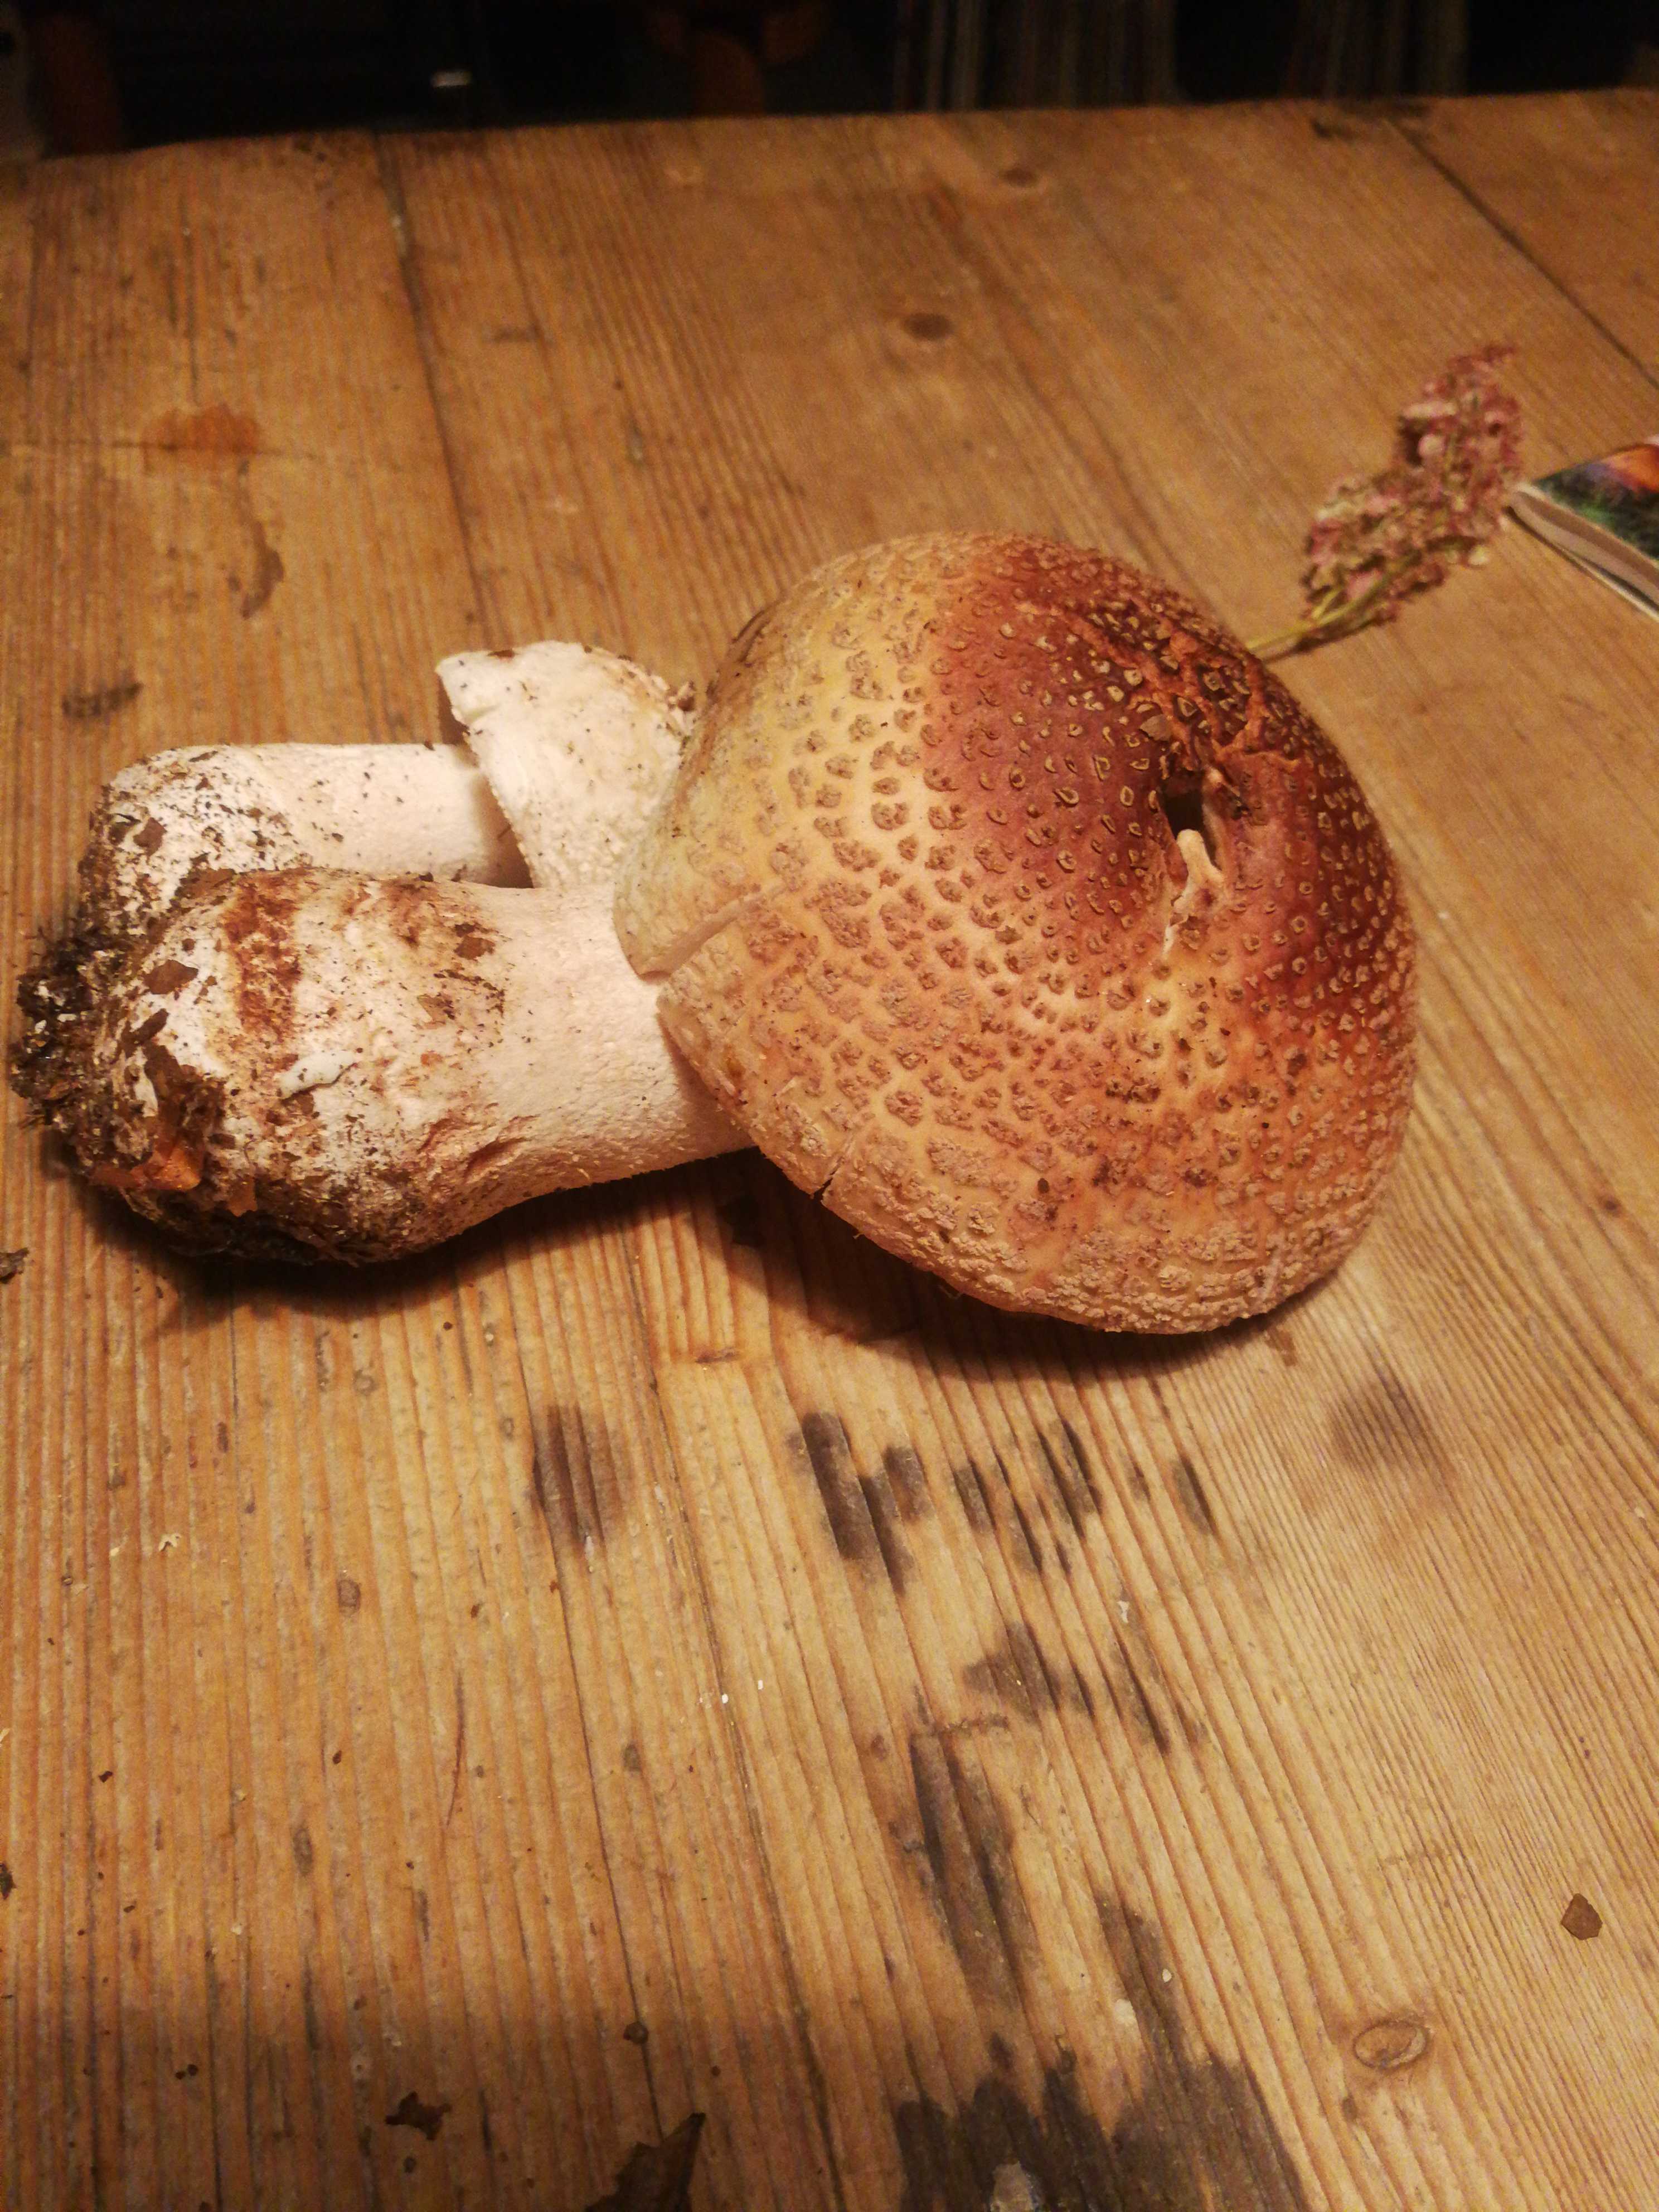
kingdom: Fungi
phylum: Basidiomycota
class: Agaricomycetes
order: Agaricales
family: Amanitaceae
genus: Amanita
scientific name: Amanita rubescens
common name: rødmende fluesvamp
